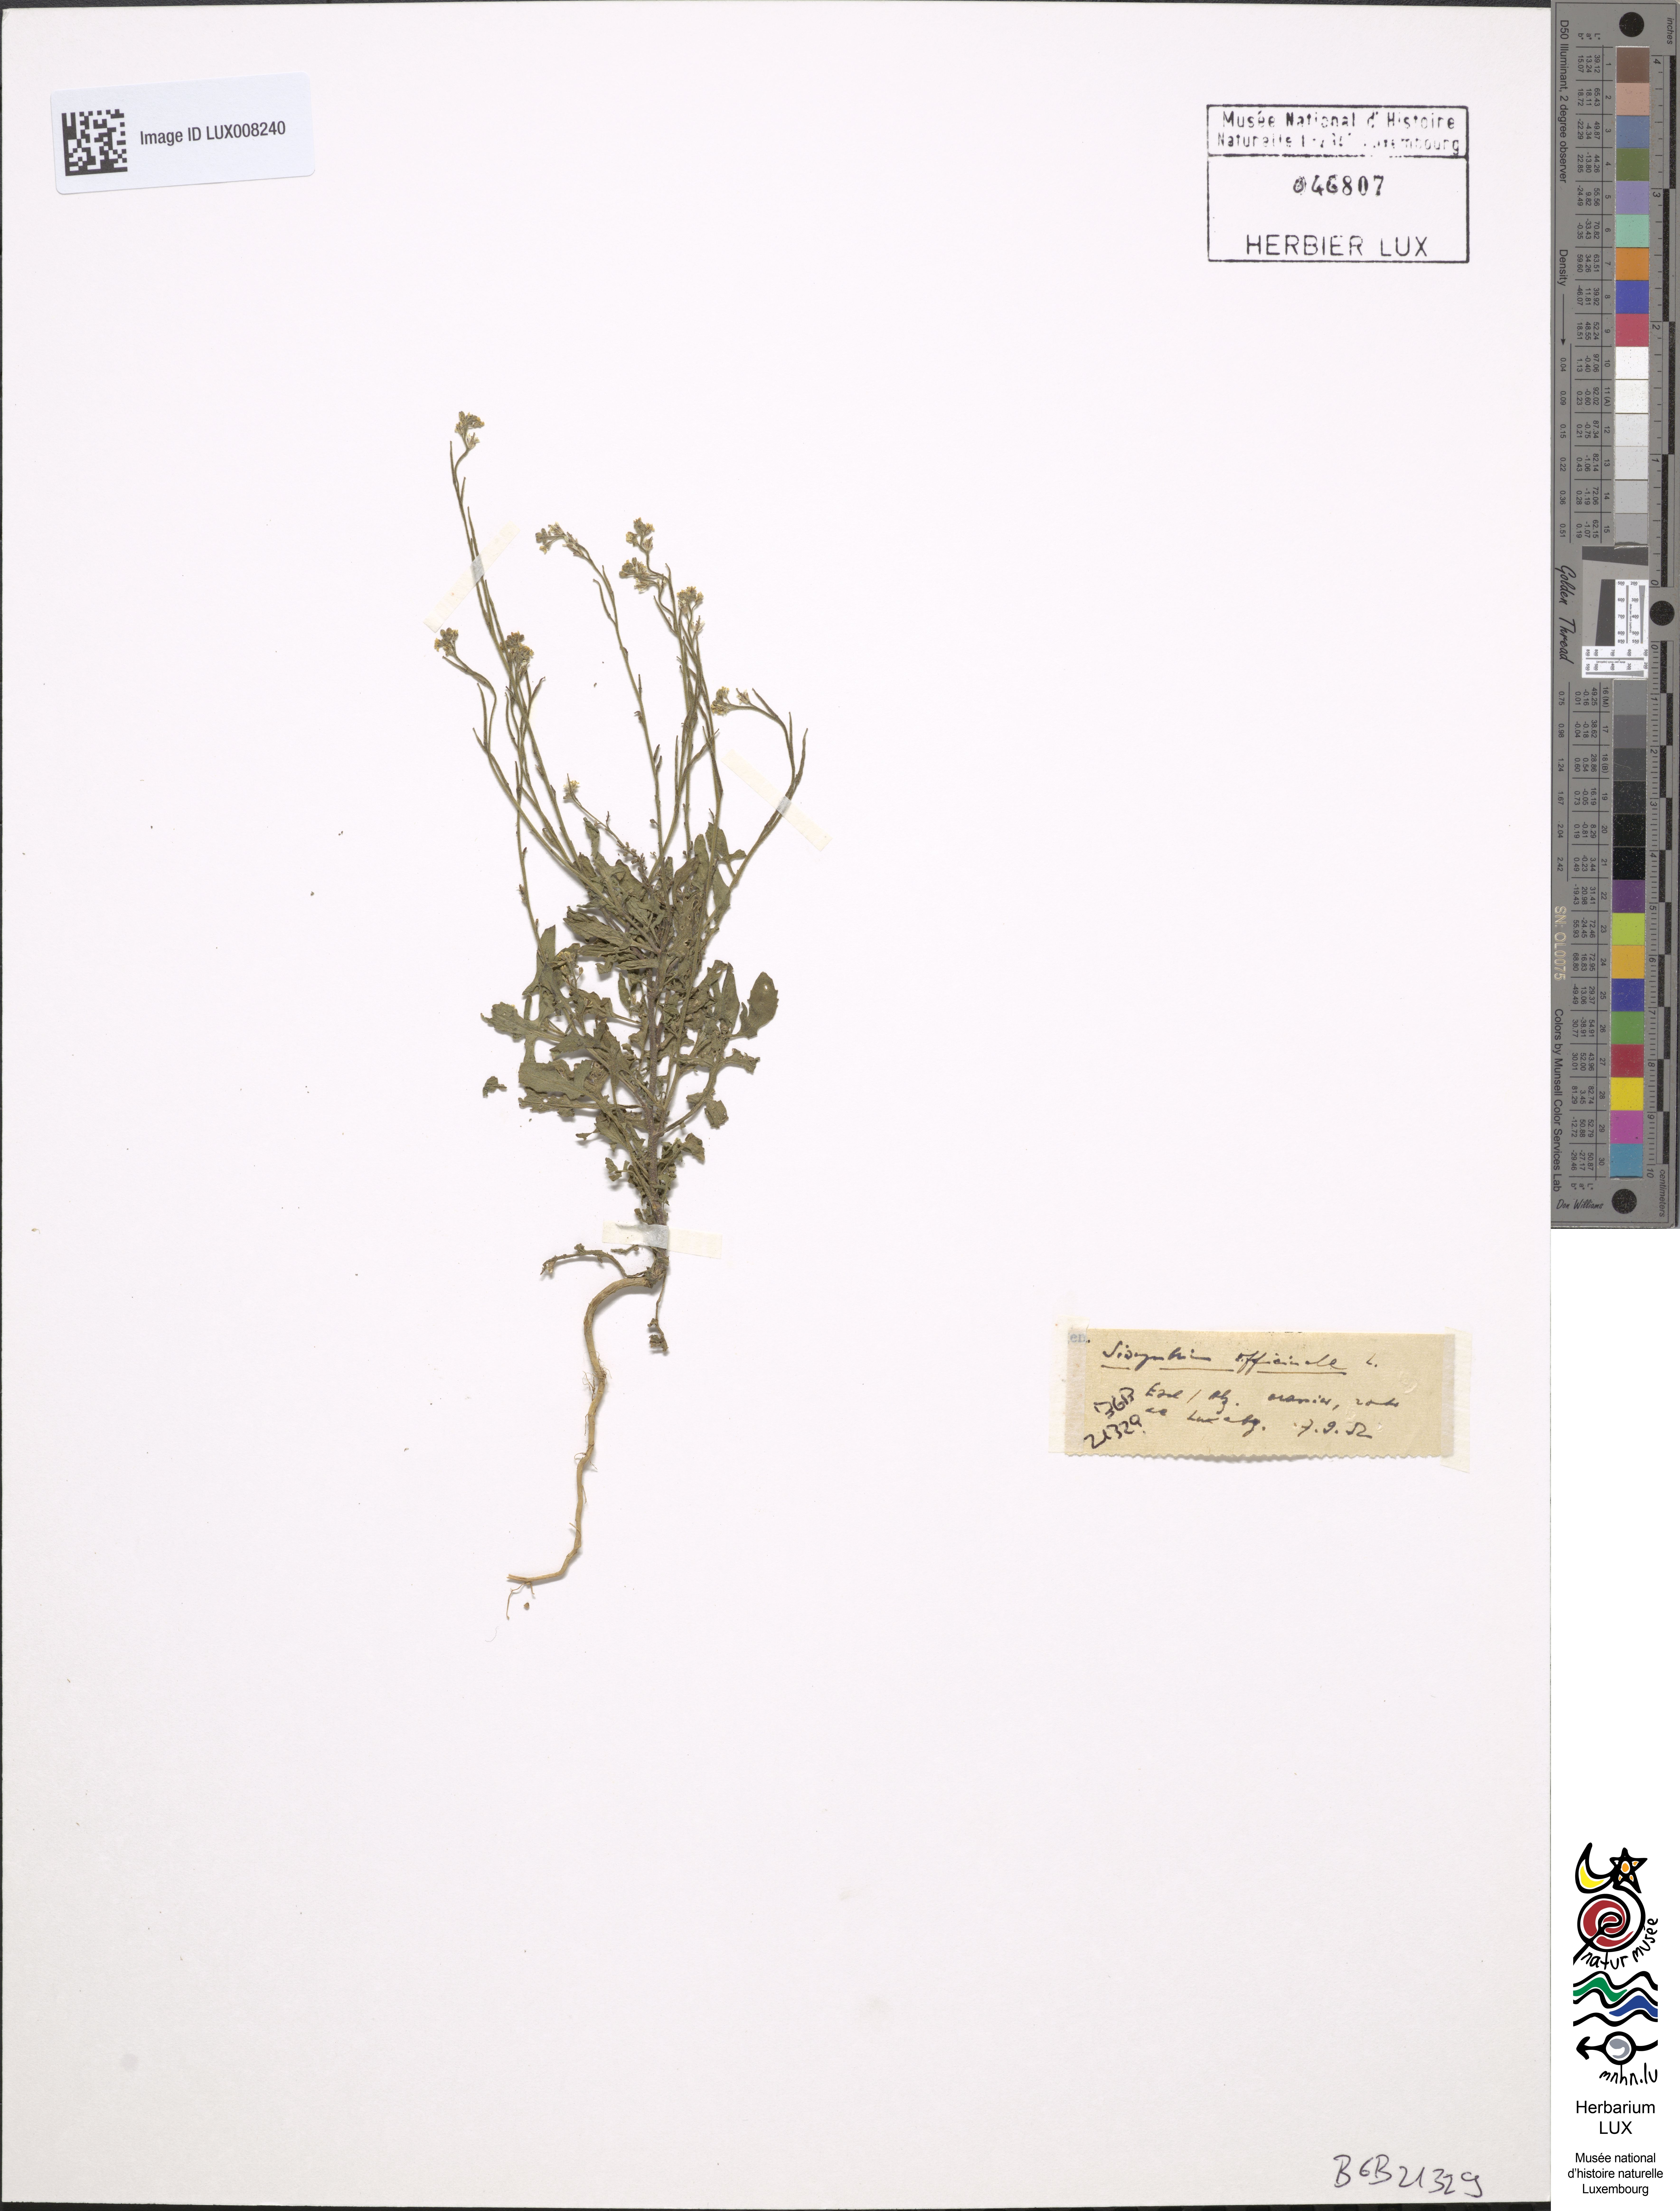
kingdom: Plantae
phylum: Tracheophyta
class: Magnoliopsida
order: Brassicales
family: Brassicaceae
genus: Sisymbrium
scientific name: Sisymbrium officinale
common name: Hedge mustard
